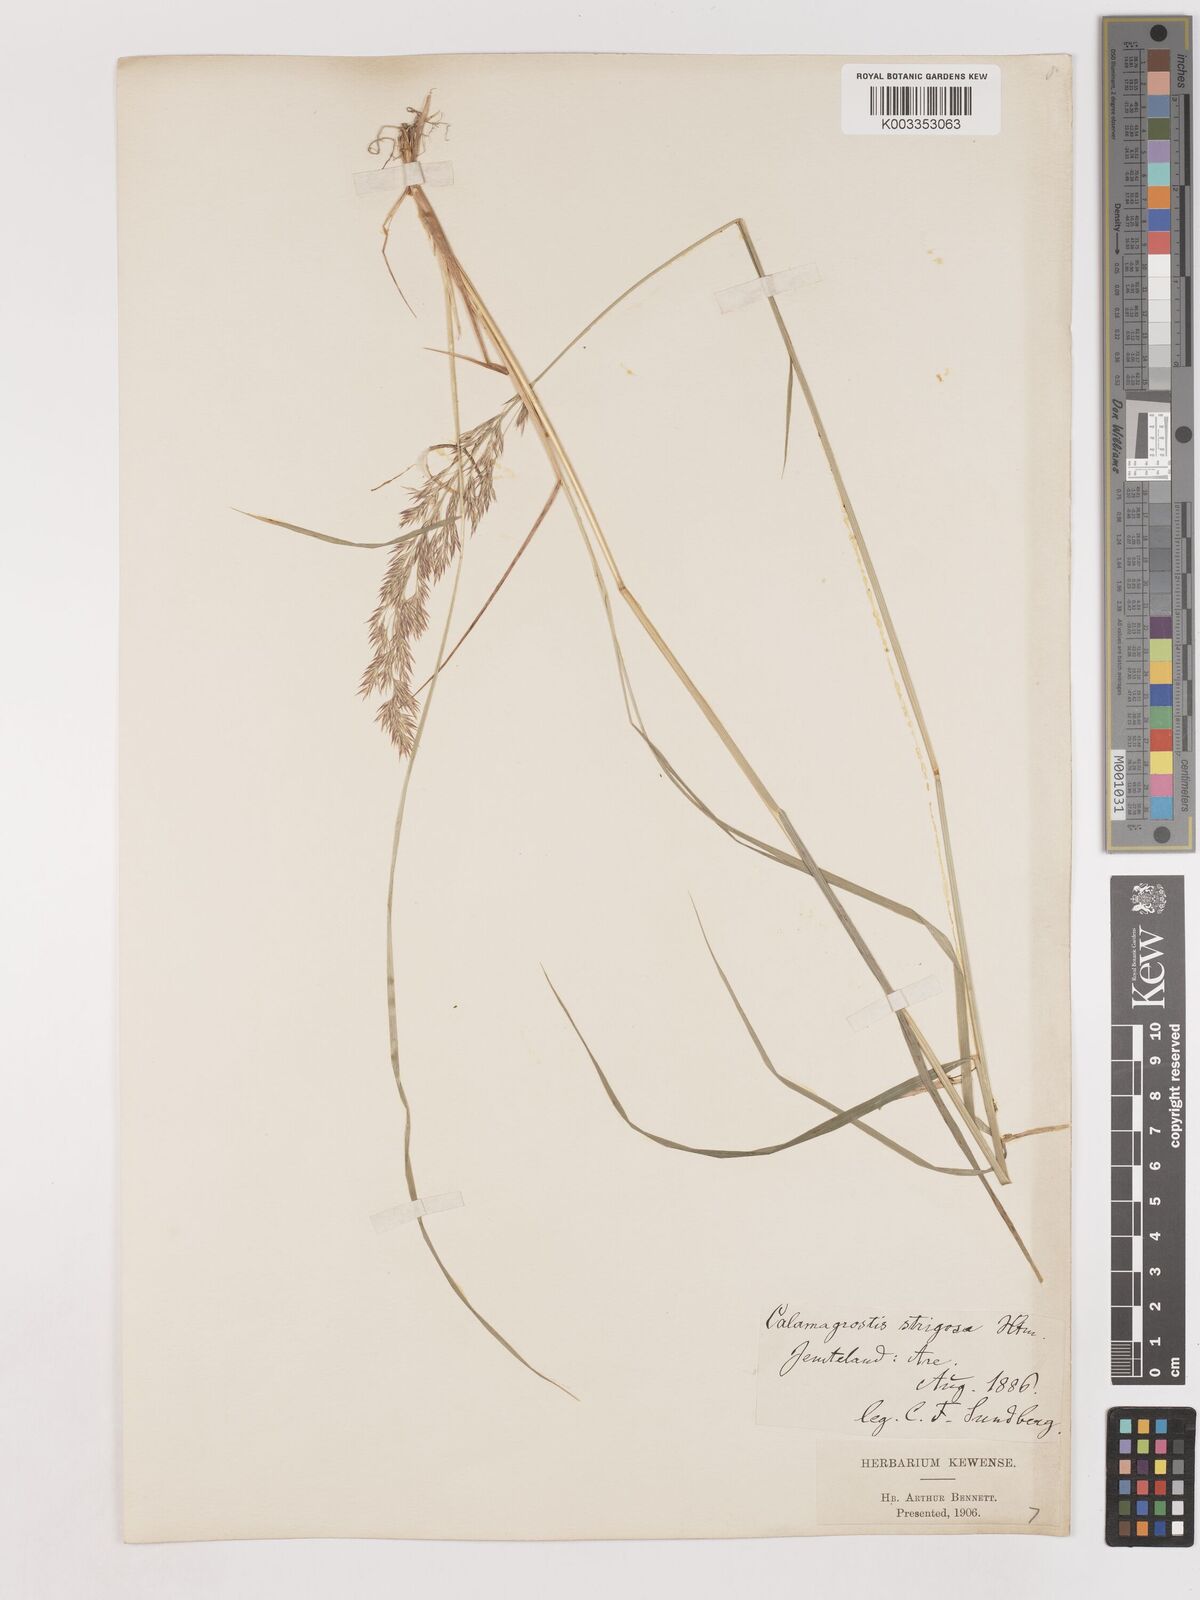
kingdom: Plantae
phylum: Tracheophyta
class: Liliopsida
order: Poales
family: Poaceae
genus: Calamagrostis
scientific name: Calamagrostis epigejos
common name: Wood small-reed
